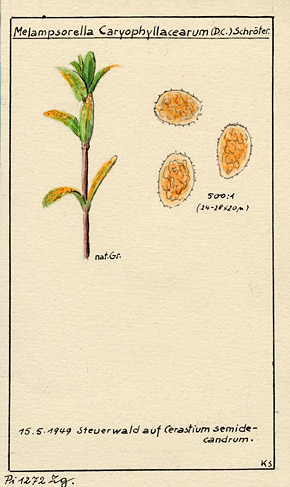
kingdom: Fungi
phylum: Basidiomycota
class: Pucciniomycetes
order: Pucciniales
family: Pucciniastraceae
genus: Melampsorella
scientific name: Melampsorella elatina
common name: Fir broom rust
